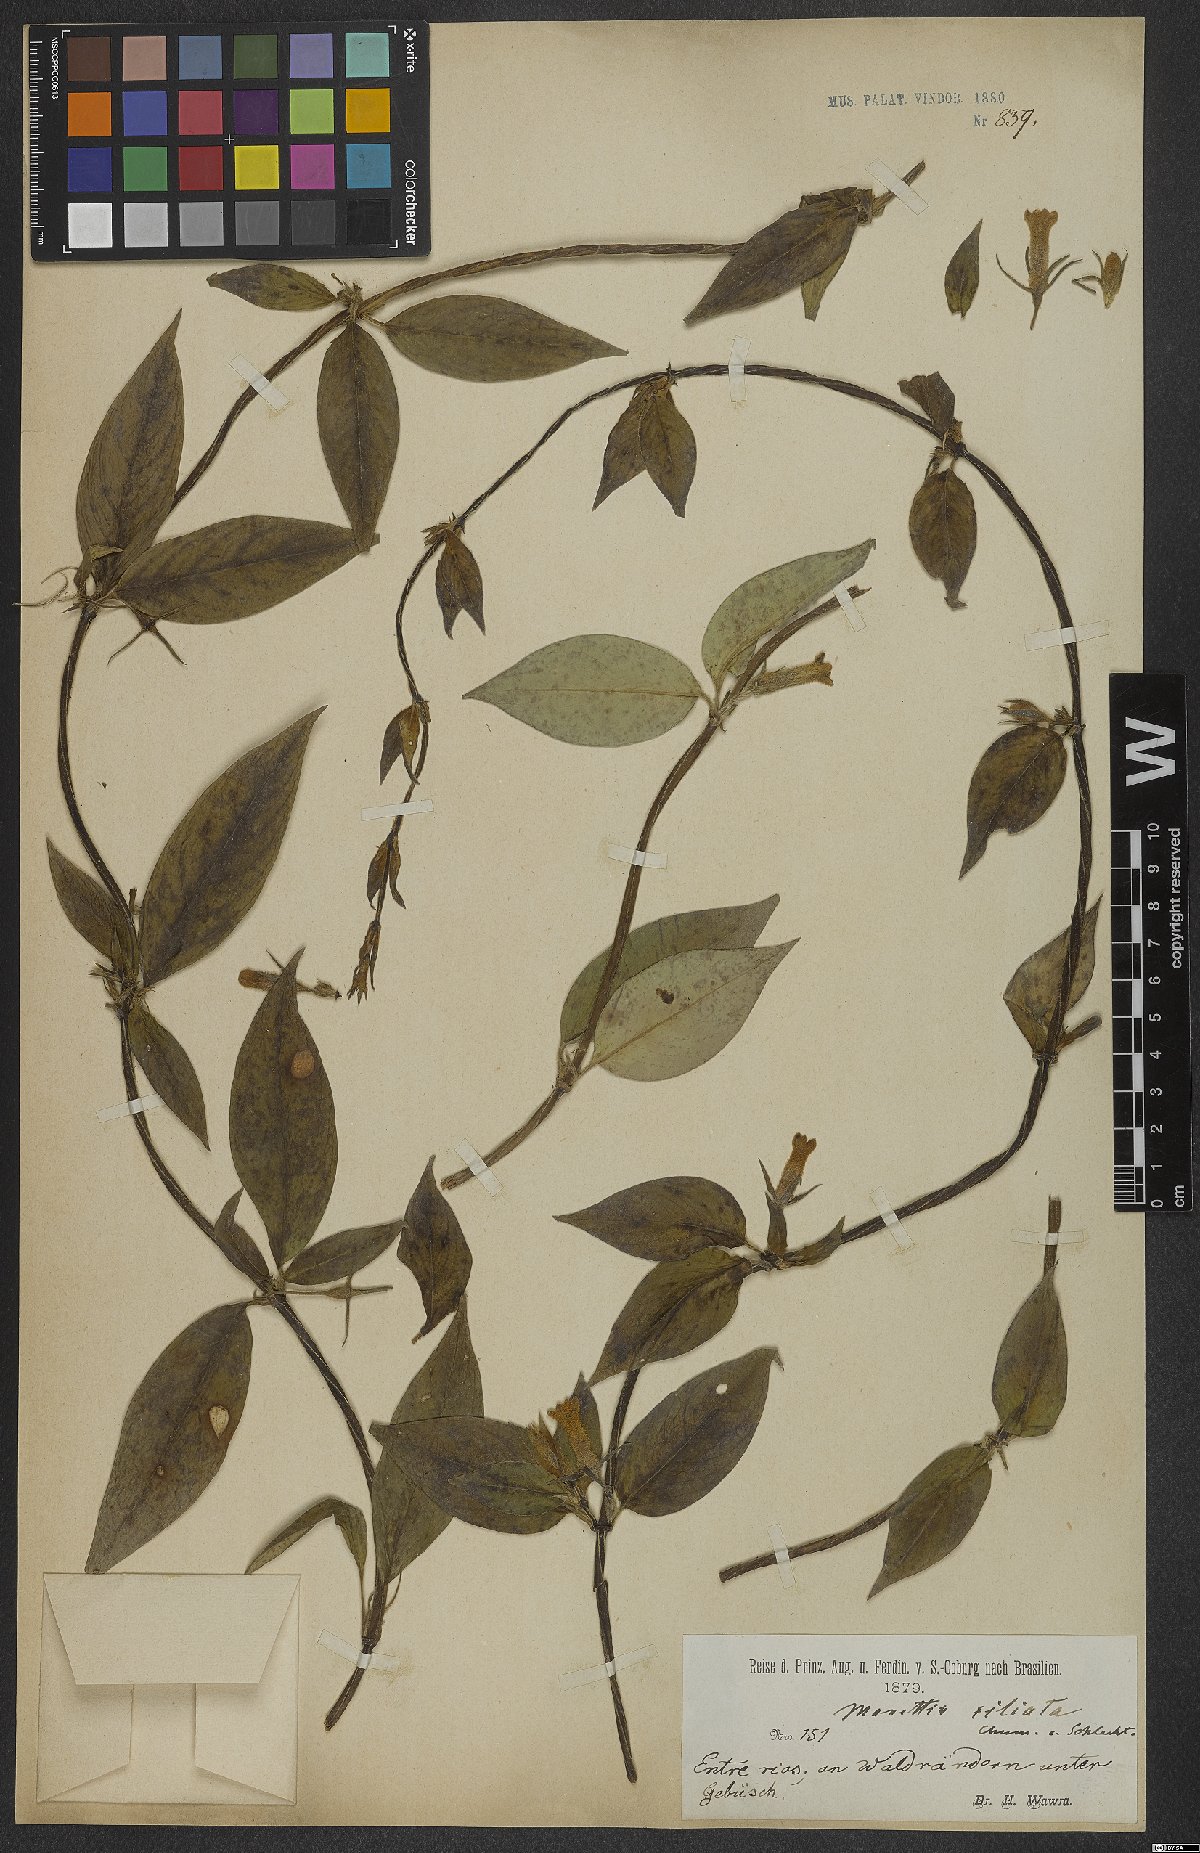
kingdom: Plantae
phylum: Tracheophyta
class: Magnoliopsida
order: Gentianales
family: Rubiaceae
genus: Manettia
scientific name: Manettia pedunculata
